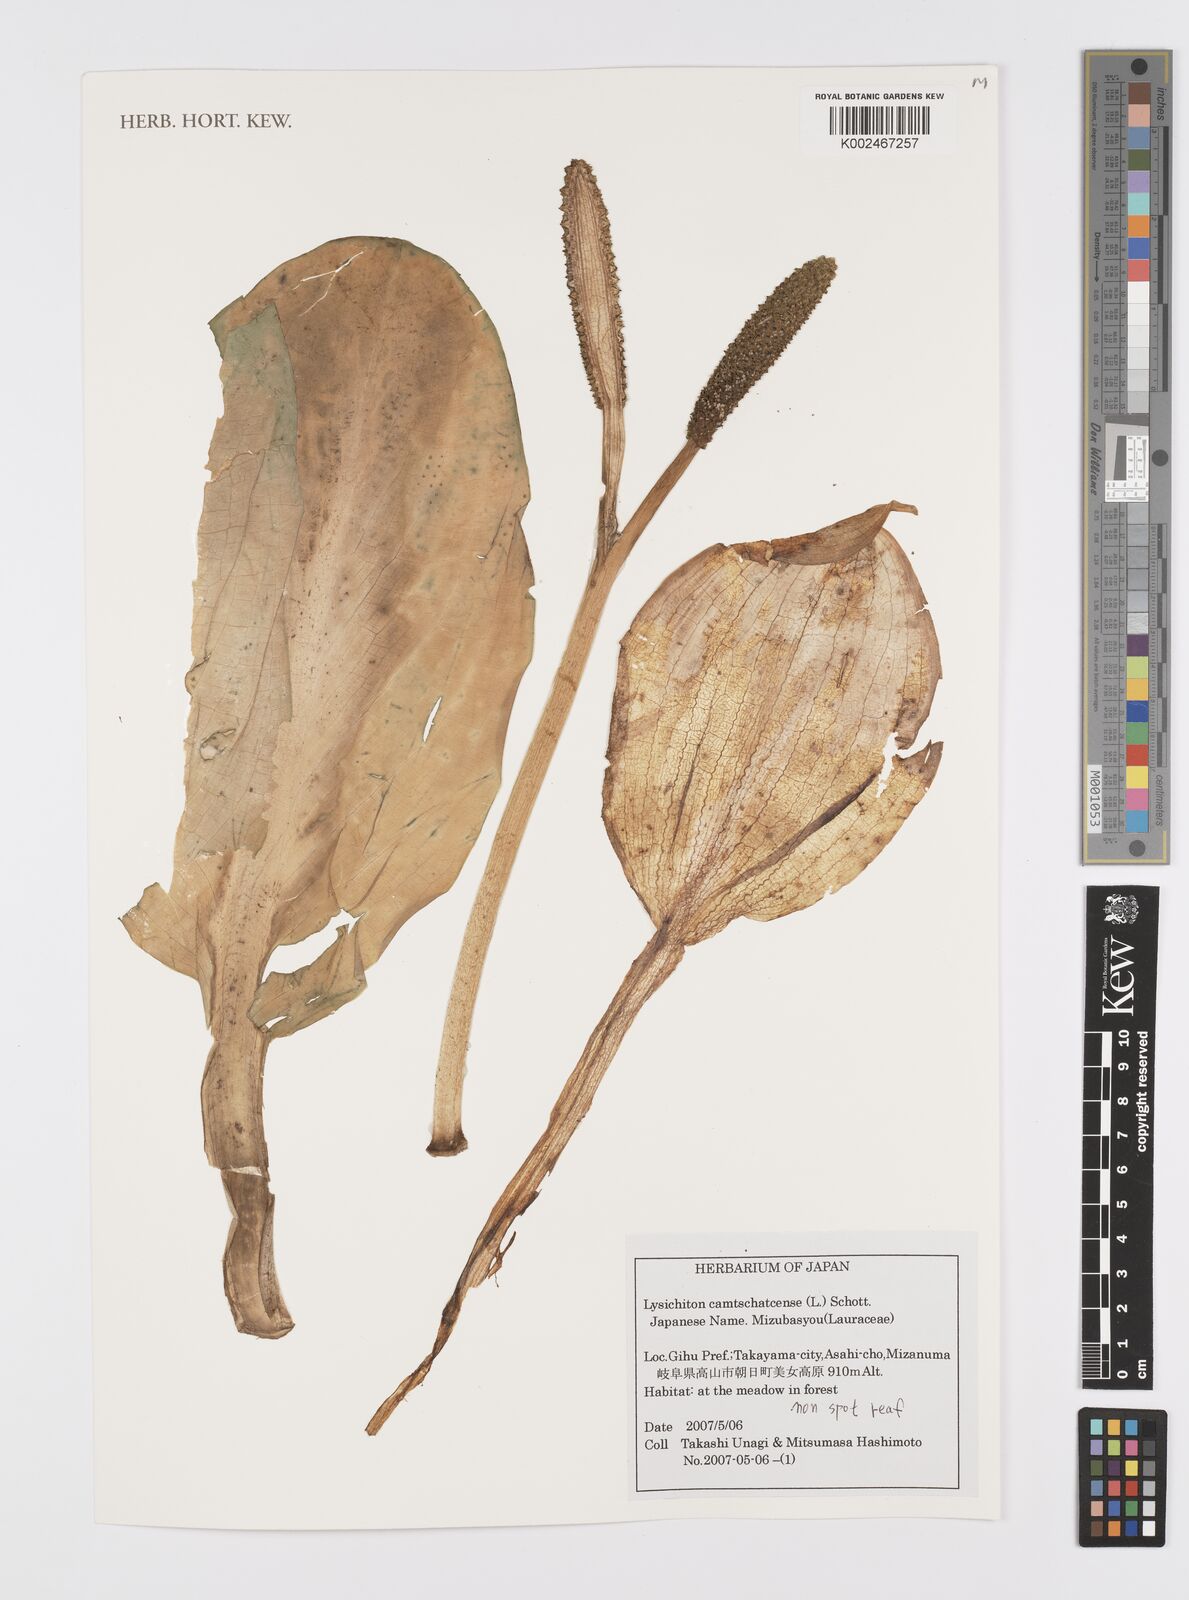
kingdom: Plantae
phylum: Tracheophyta
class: Liliopsida
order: Alismatales
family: Araceae
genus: Lysichiton
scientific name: Lysichiton camtschatcensis
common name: Asian skunk-cabbage
